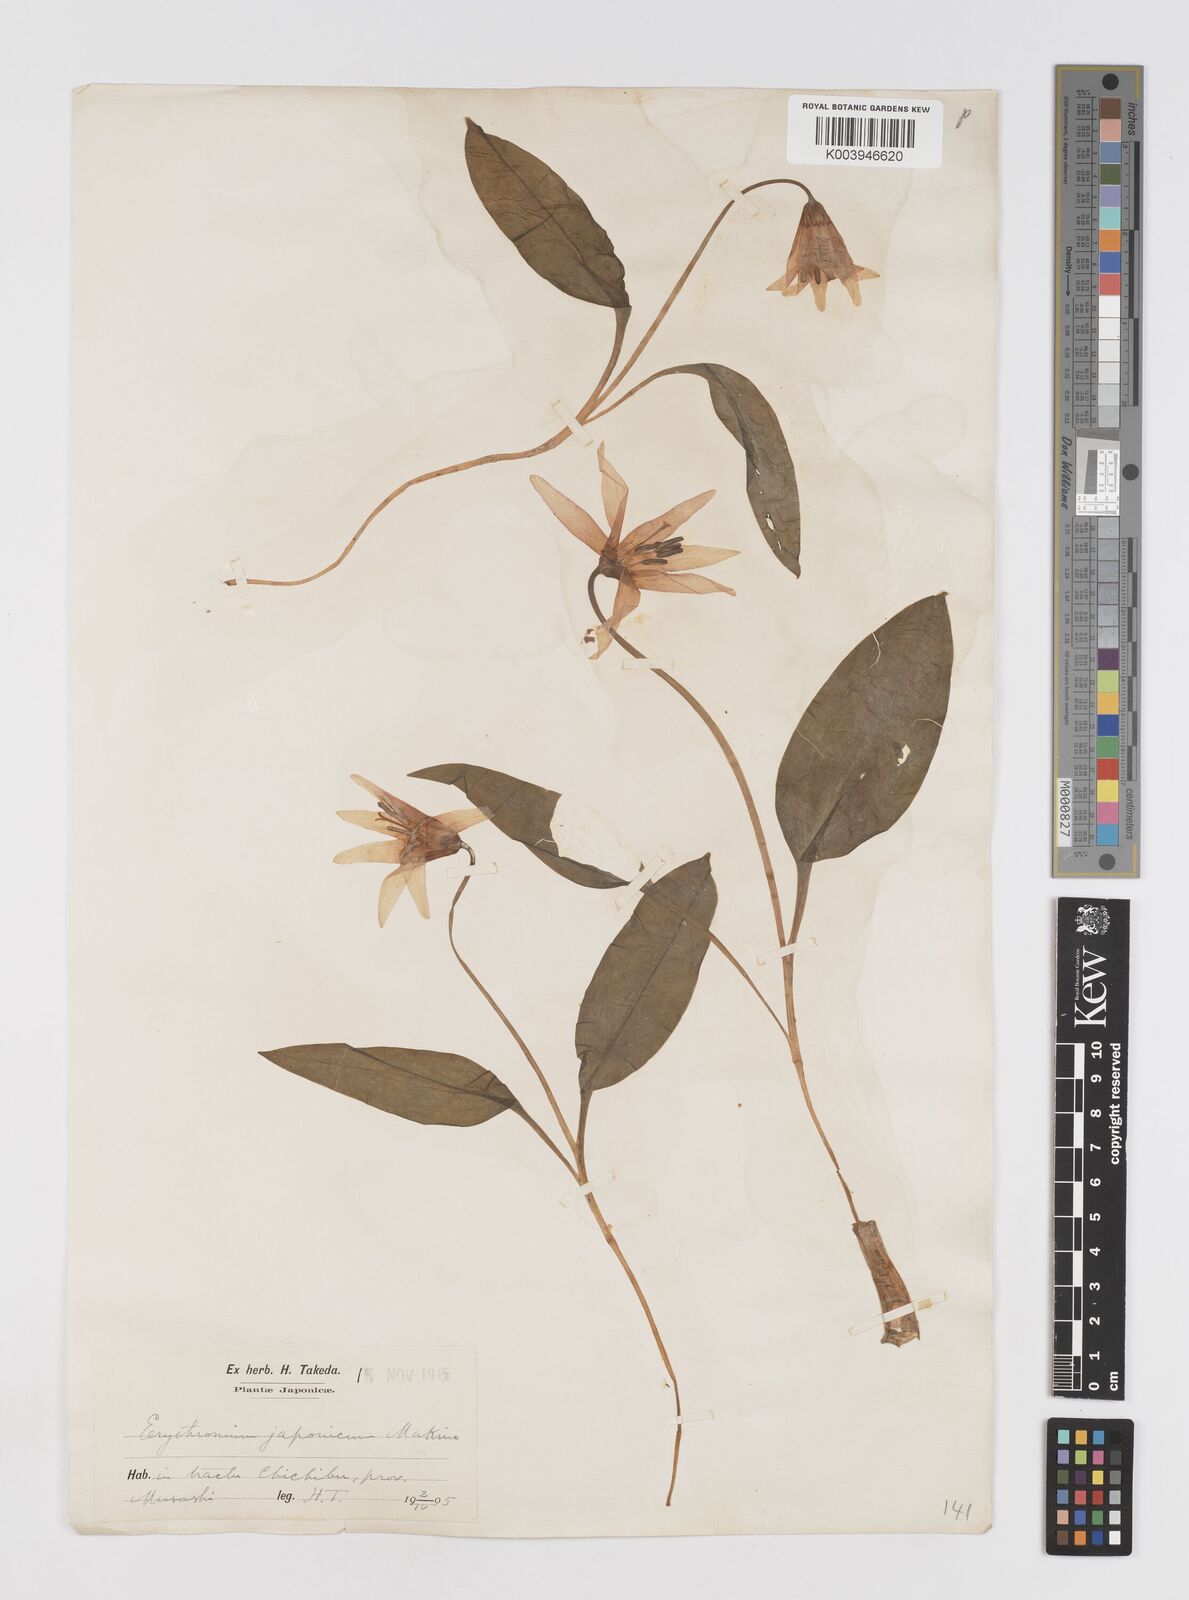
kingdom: Plantae
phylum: Tracheophyta
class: Liliopsida
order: Liliales
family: Liliaceae
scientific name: Liliaceae
